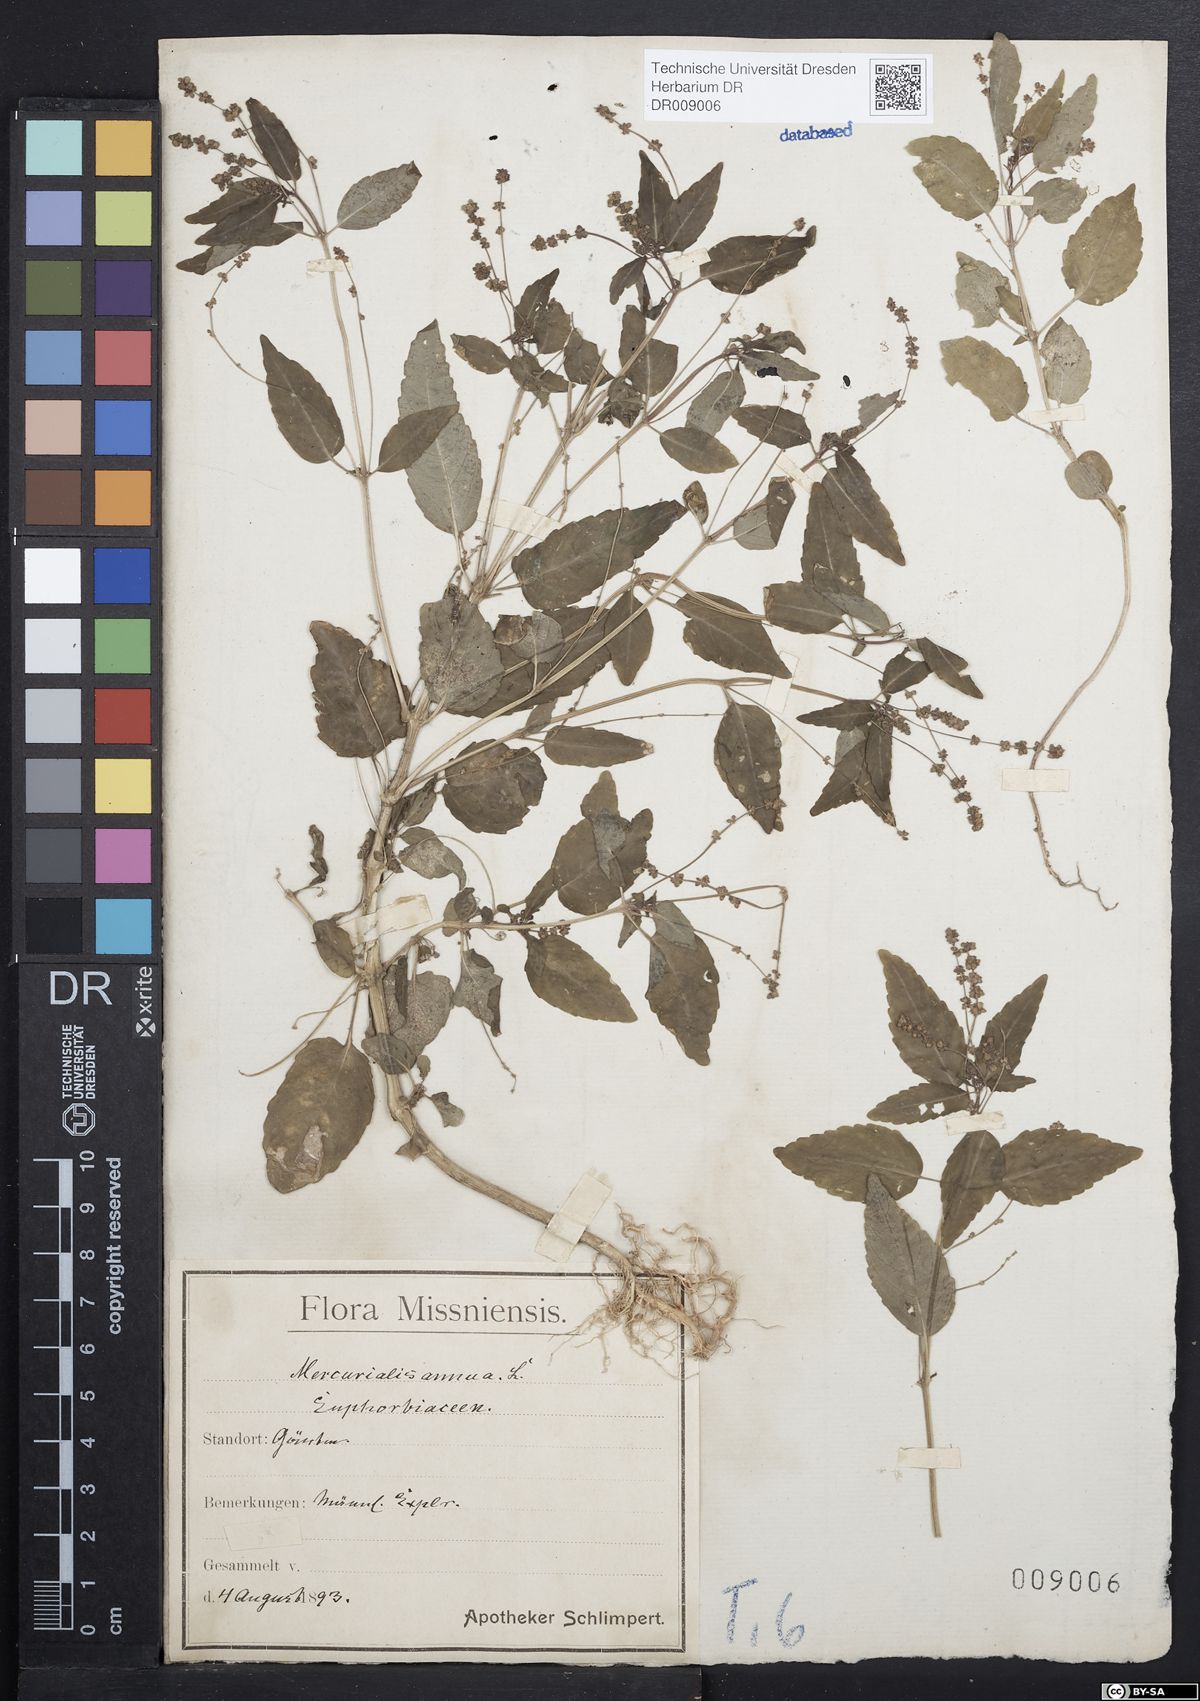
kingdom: Plantae
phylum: Tracheophyta
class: Magnoliopsida
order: Malpighiales
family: Euphorbiaceae
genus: Mercurialis
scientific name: Mercurialis annua
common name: Annual mercury
